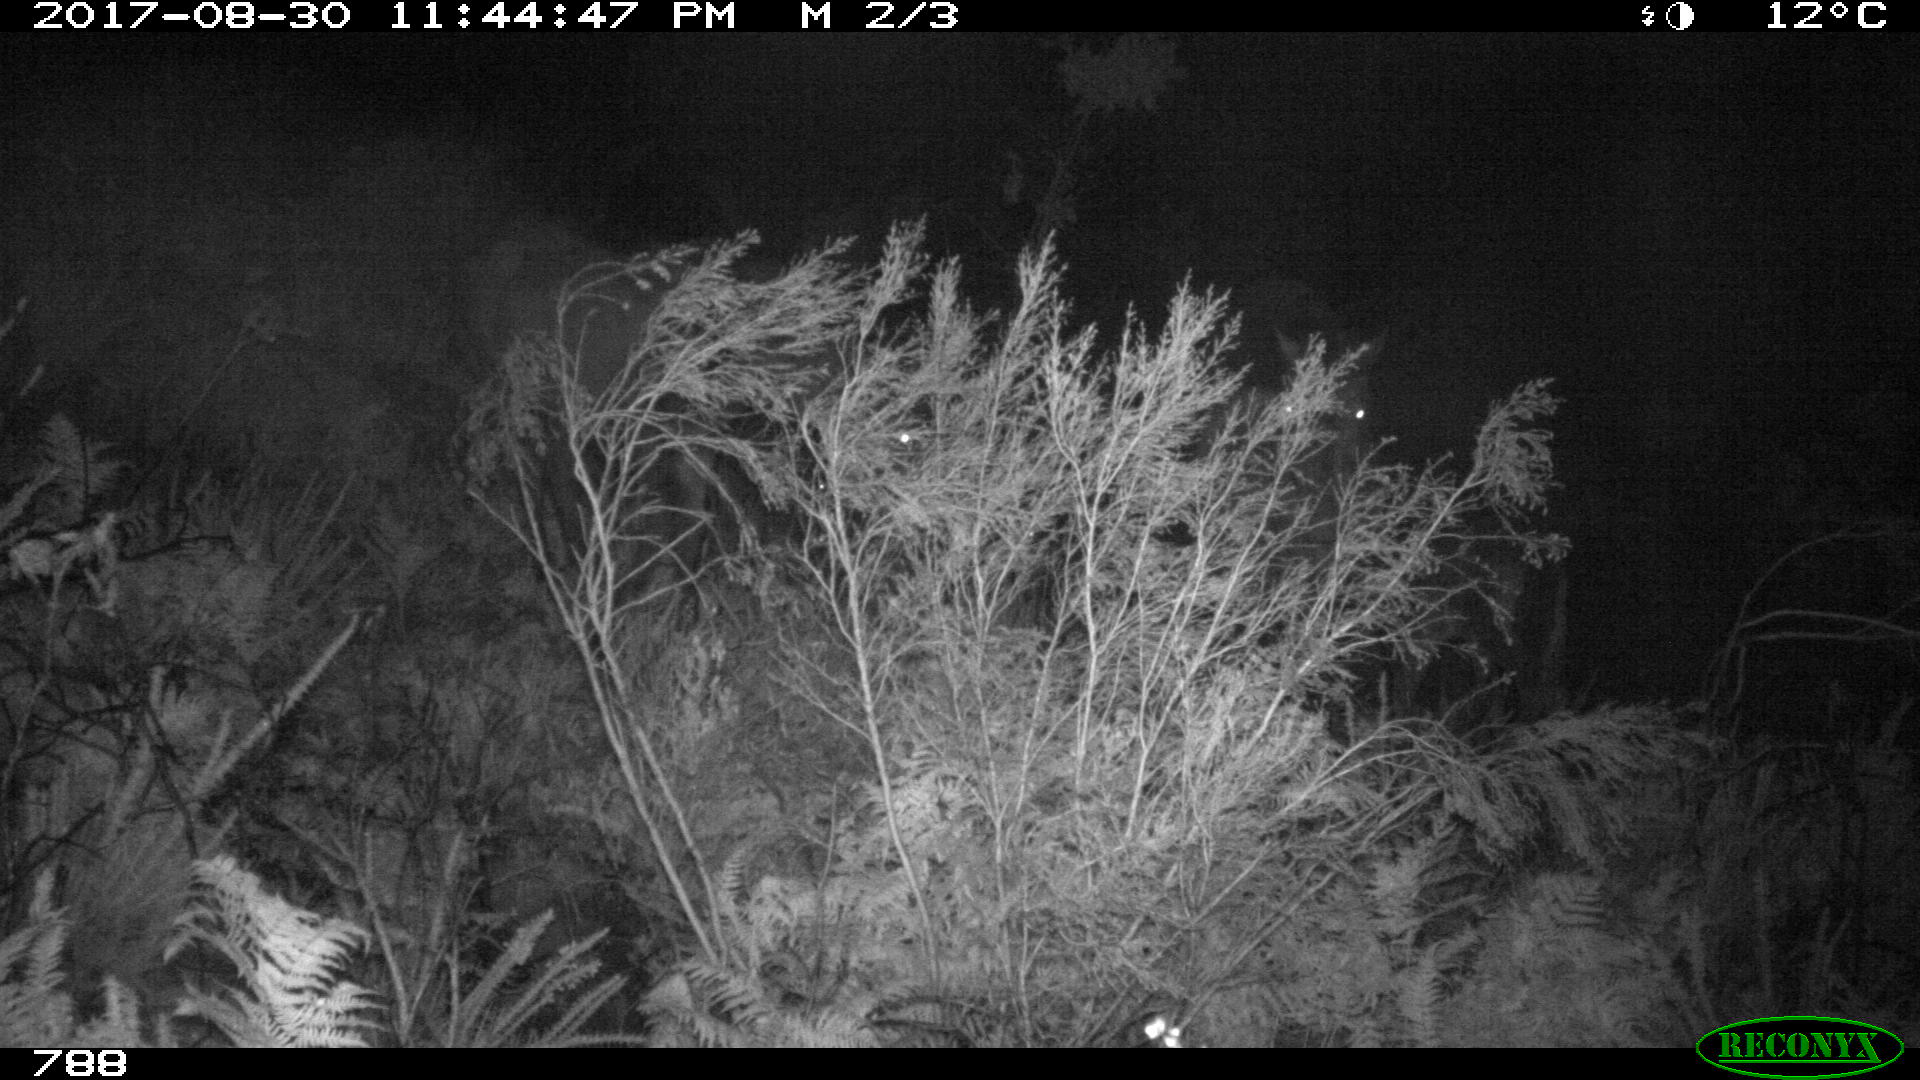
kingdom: Animalia
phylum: Chordata
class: Mammalia
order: Perissodactyla
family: Equidae
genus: Equus
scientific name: Equus caballus
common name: Horse
